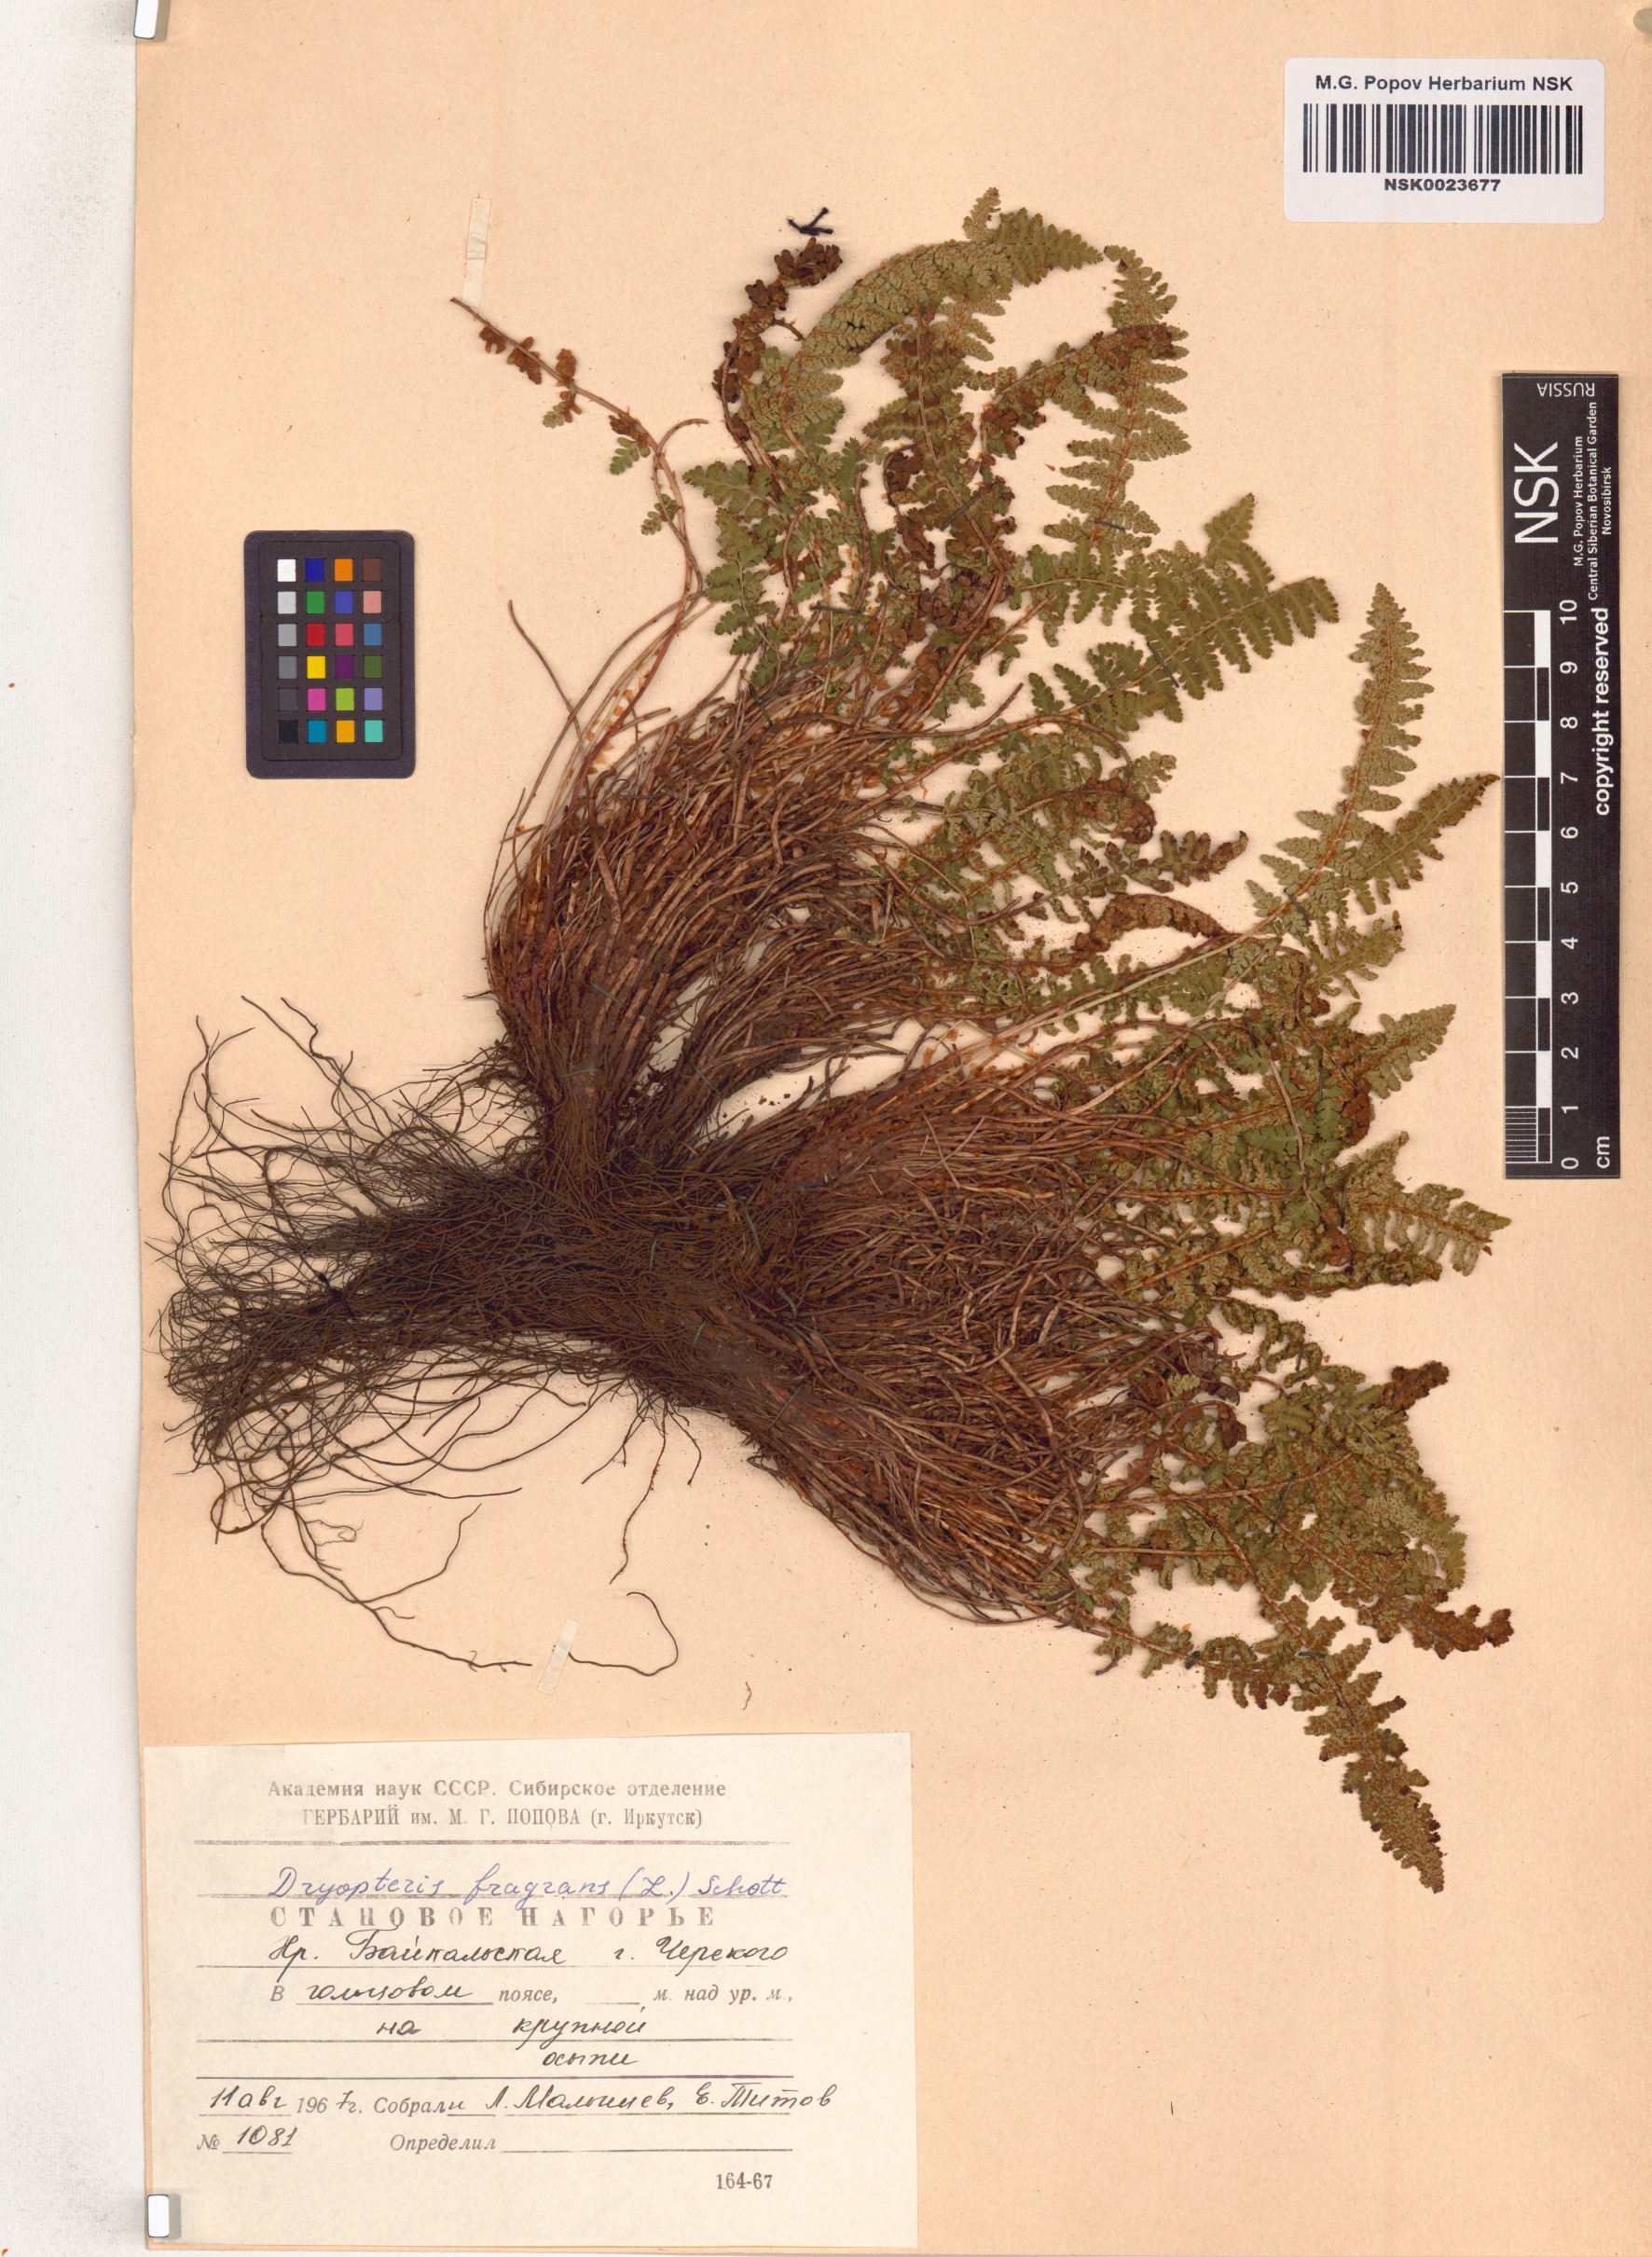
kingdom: Plantae
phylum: Tracheophyta
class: Polypodiopsida
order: Polypodiales
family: Dryopteridaceae
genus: Dryopteris
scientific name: Dryopteris fragrans
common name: Fragrant wood fern
